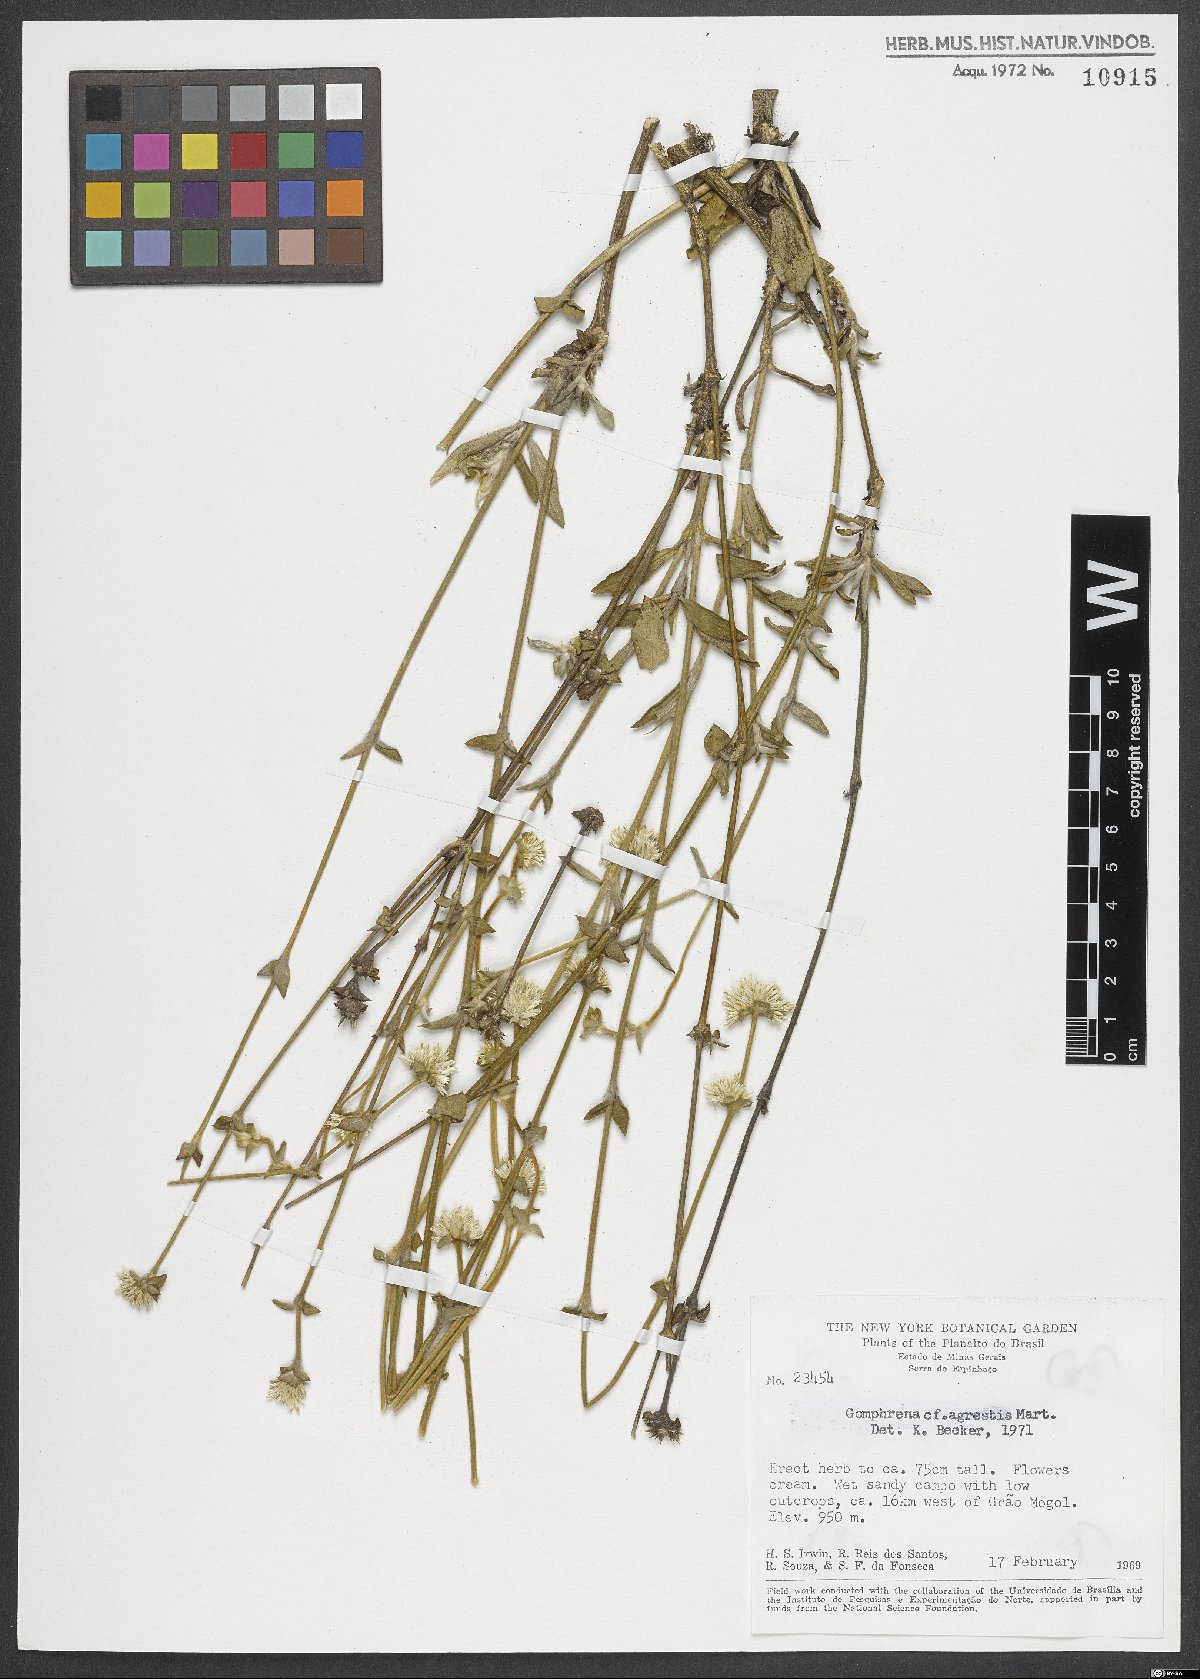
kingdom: Plantae
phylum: Tracheophyta
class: Magnoliopsida
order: Caryophyllales
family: Amaranthaceae
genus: Gomphrena
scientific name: Gomphrena agrestis
